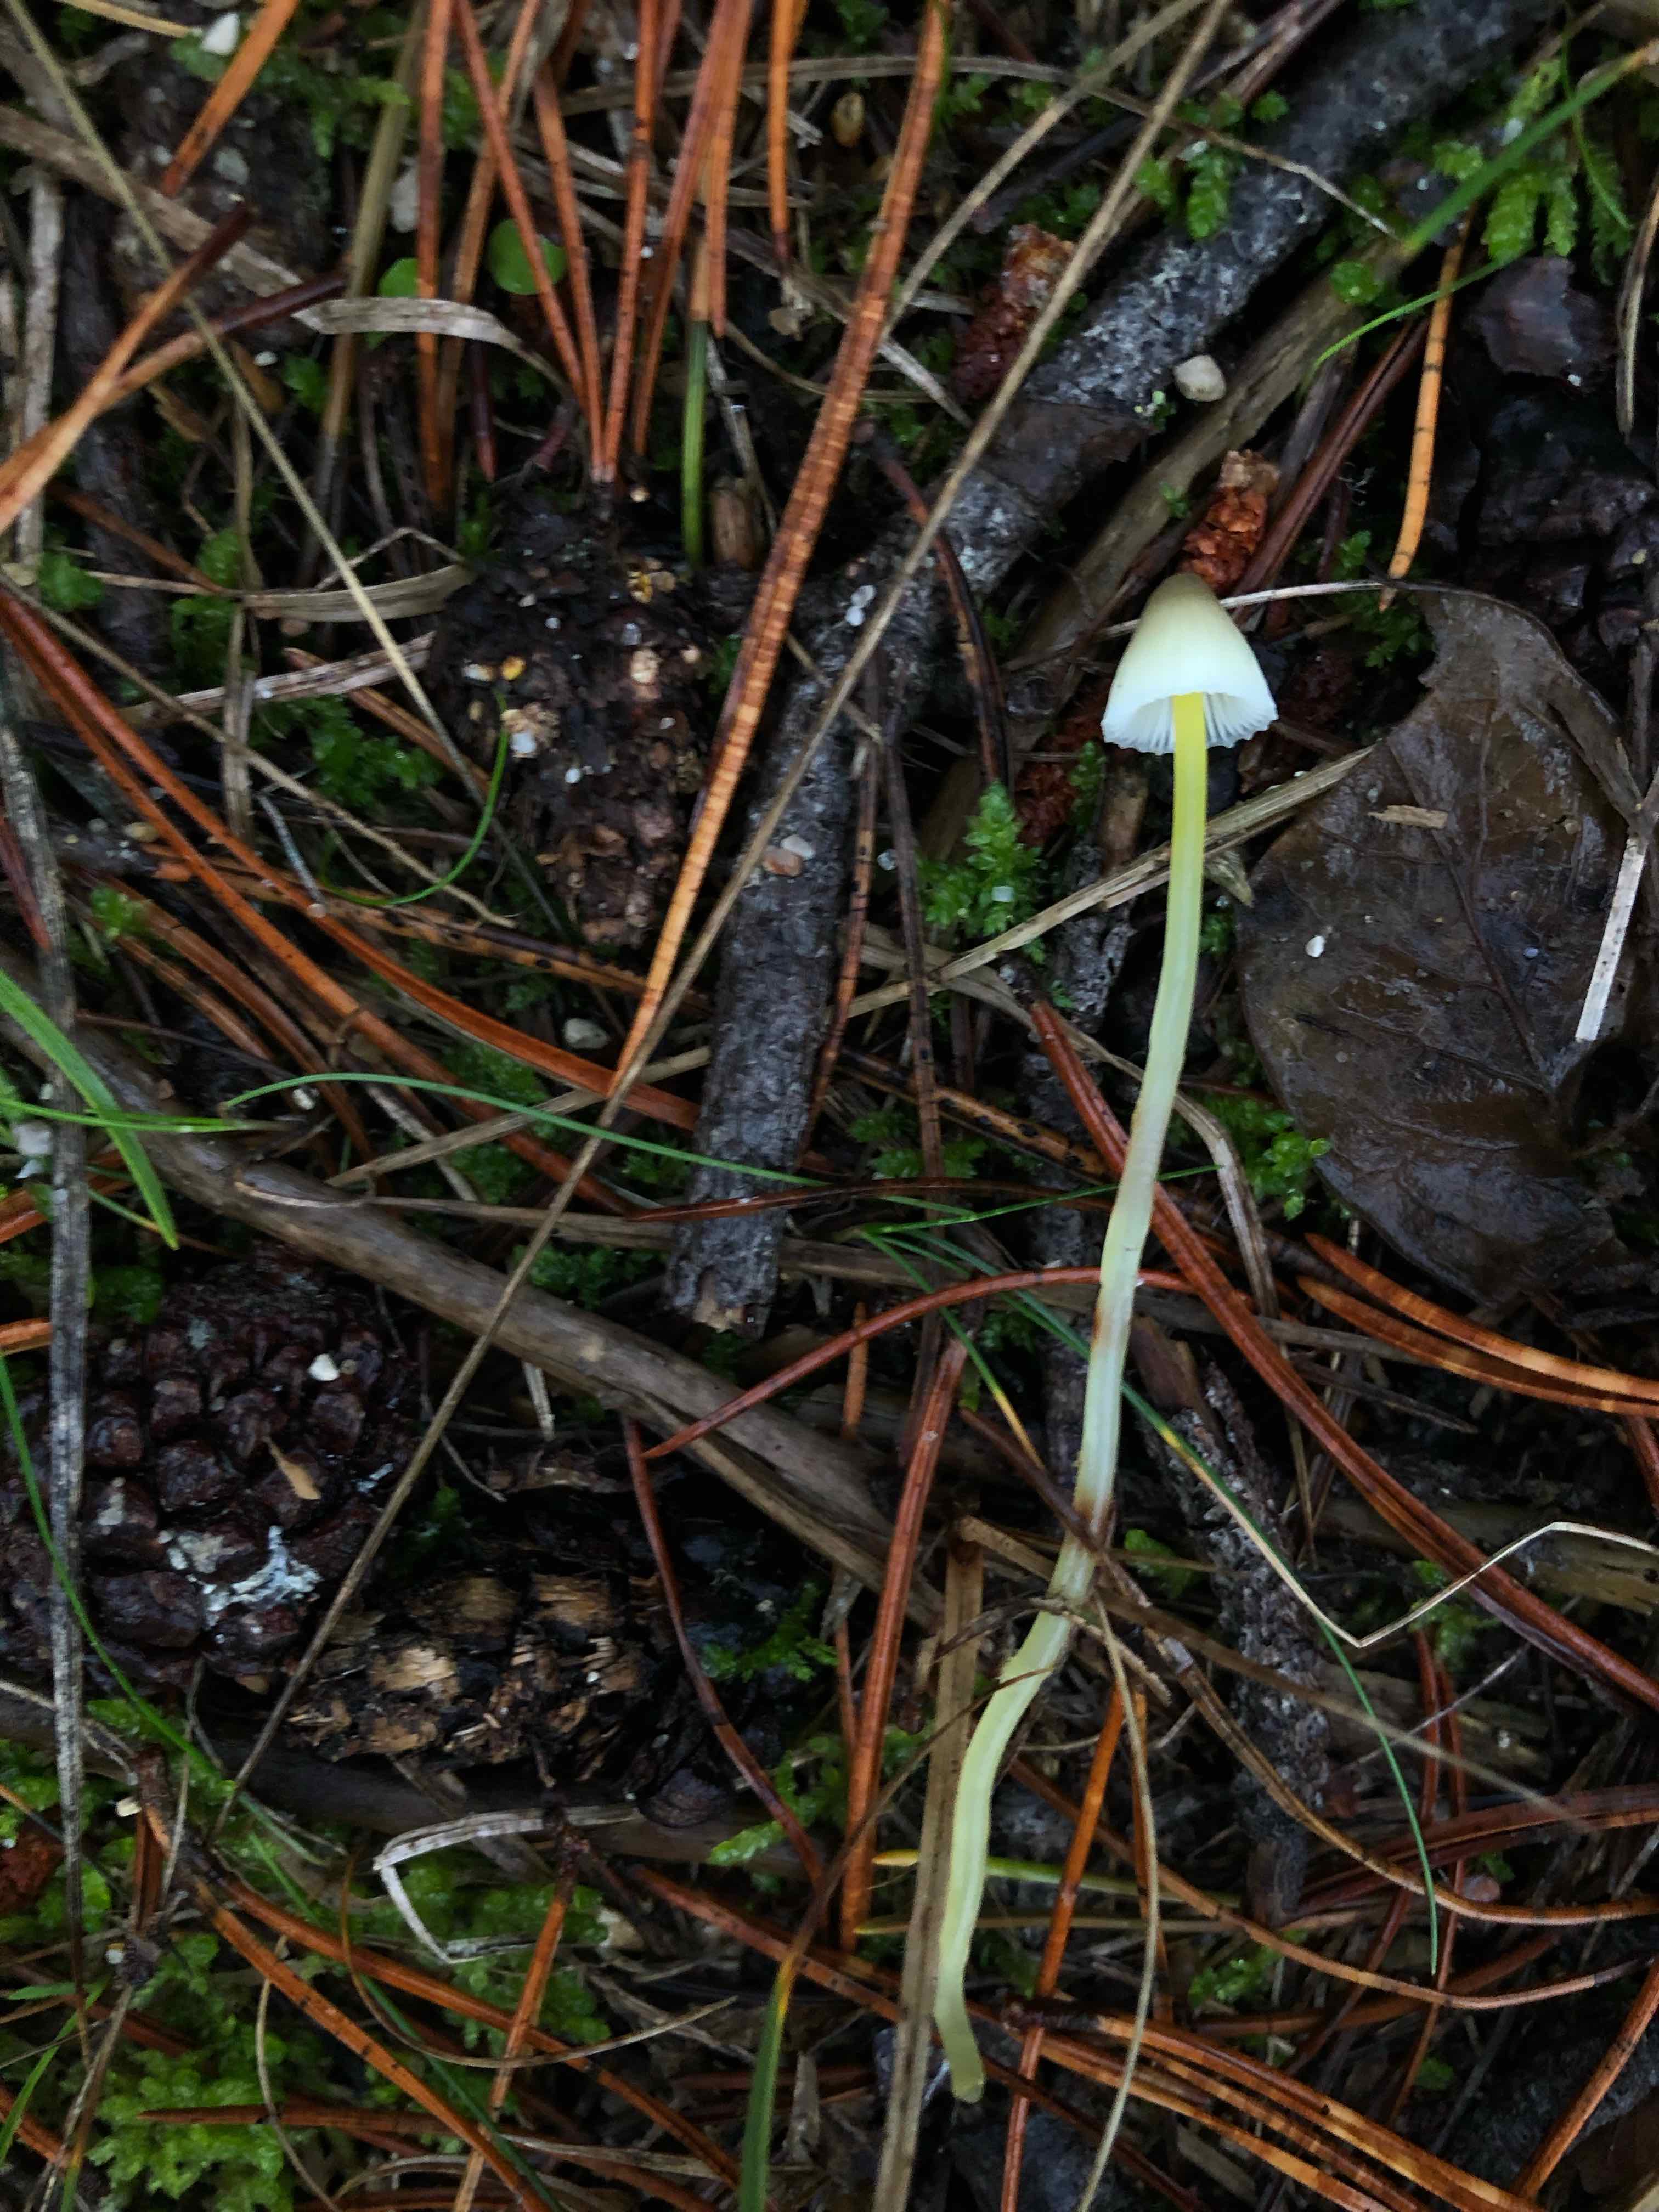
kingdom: Fungi
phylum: Basidiomycota
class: Agaricomycetes
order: Agaricales
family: Mycenaceae
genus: Mycena
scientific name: Mycena epipterygia
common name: gulstokket huesvamp
